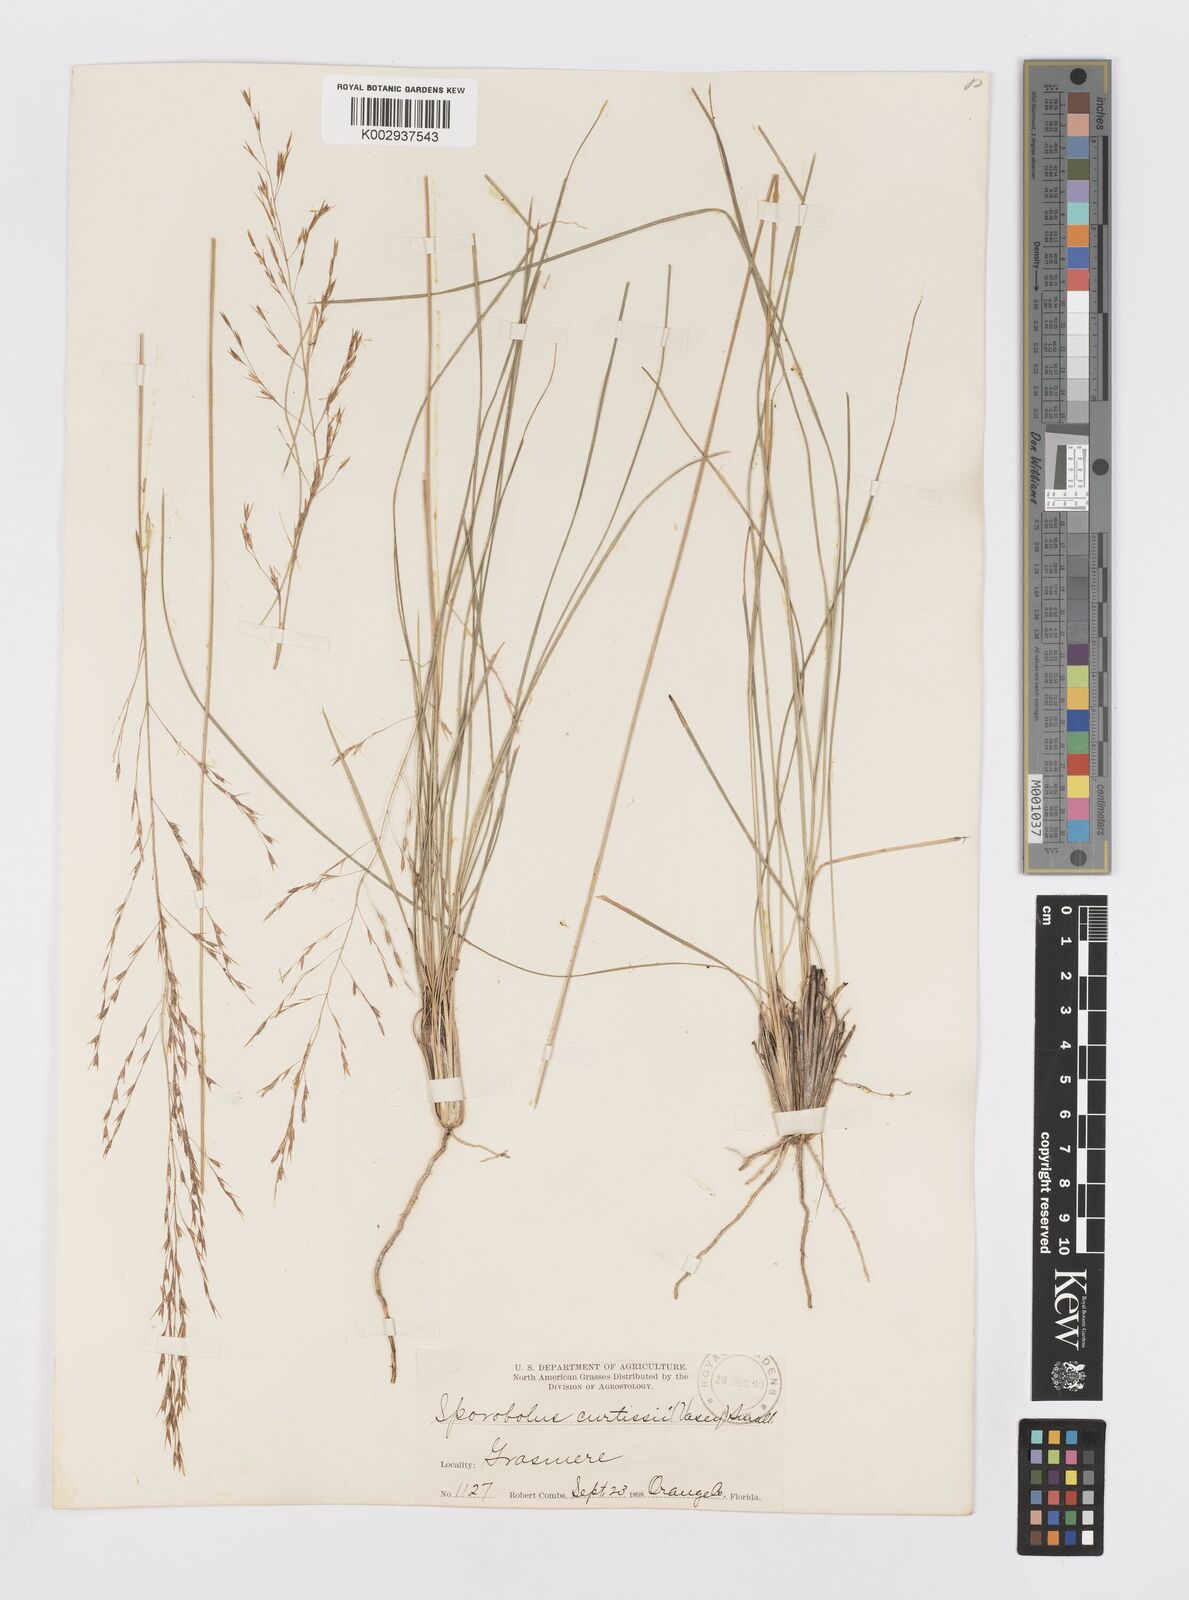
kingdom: Plantae
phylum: Tracheophyta
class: Liliopsida
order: Poales
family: Poaceae
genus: Sporobolus
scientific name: Sporobolus curtissii
